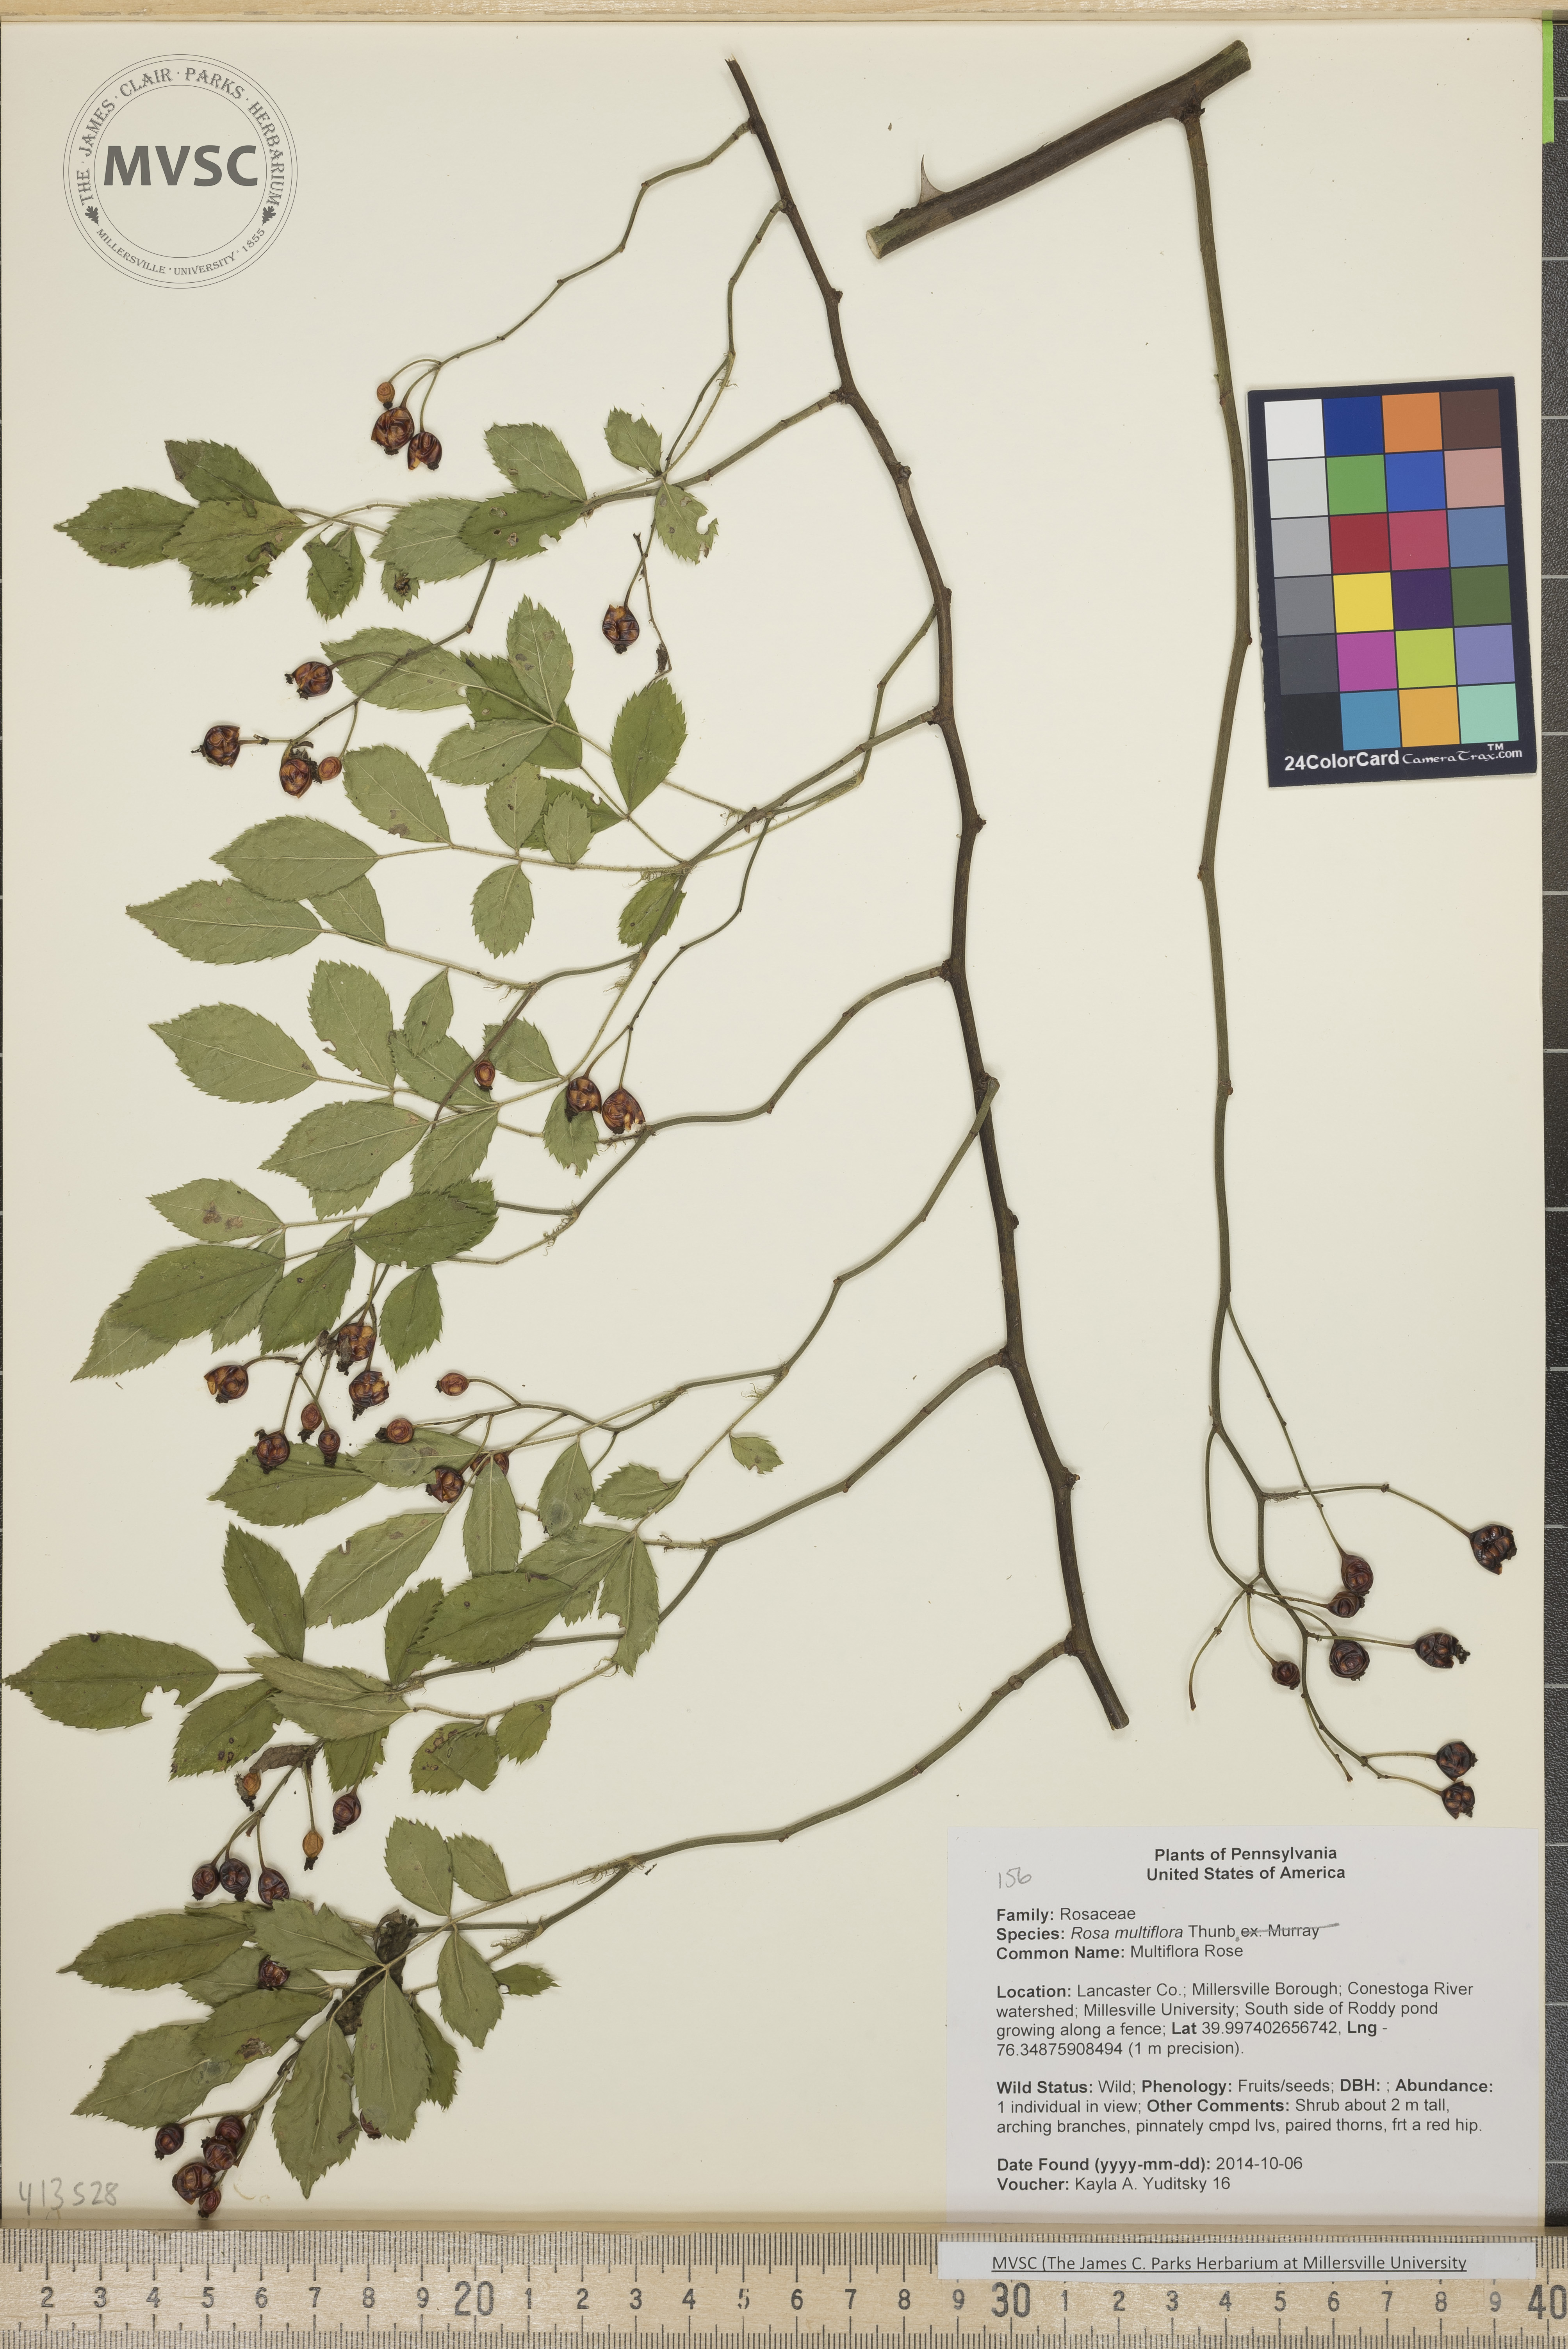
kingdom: Plantae
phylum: Tracheophyta
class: Magnoliopsida
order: Rosales
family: Rosaceae
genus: Rosa
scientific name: Rosa multiflora
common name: Multiflora Rose
